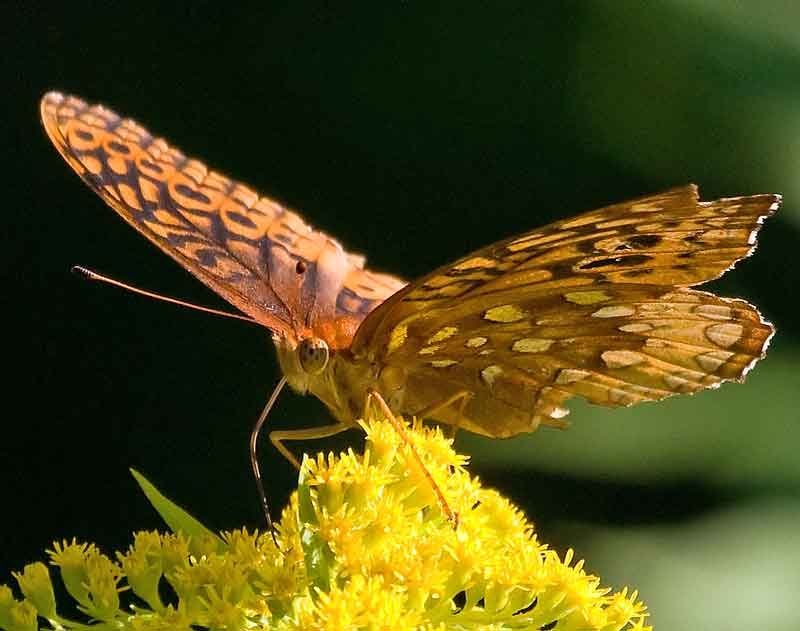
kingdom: Animalia
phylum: Arthropoda
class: Insecta
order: Lepidoptera
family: Nymphalidae
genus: Speyeria
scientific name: Speyeria cybele
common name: Great Spangled Fritillary
